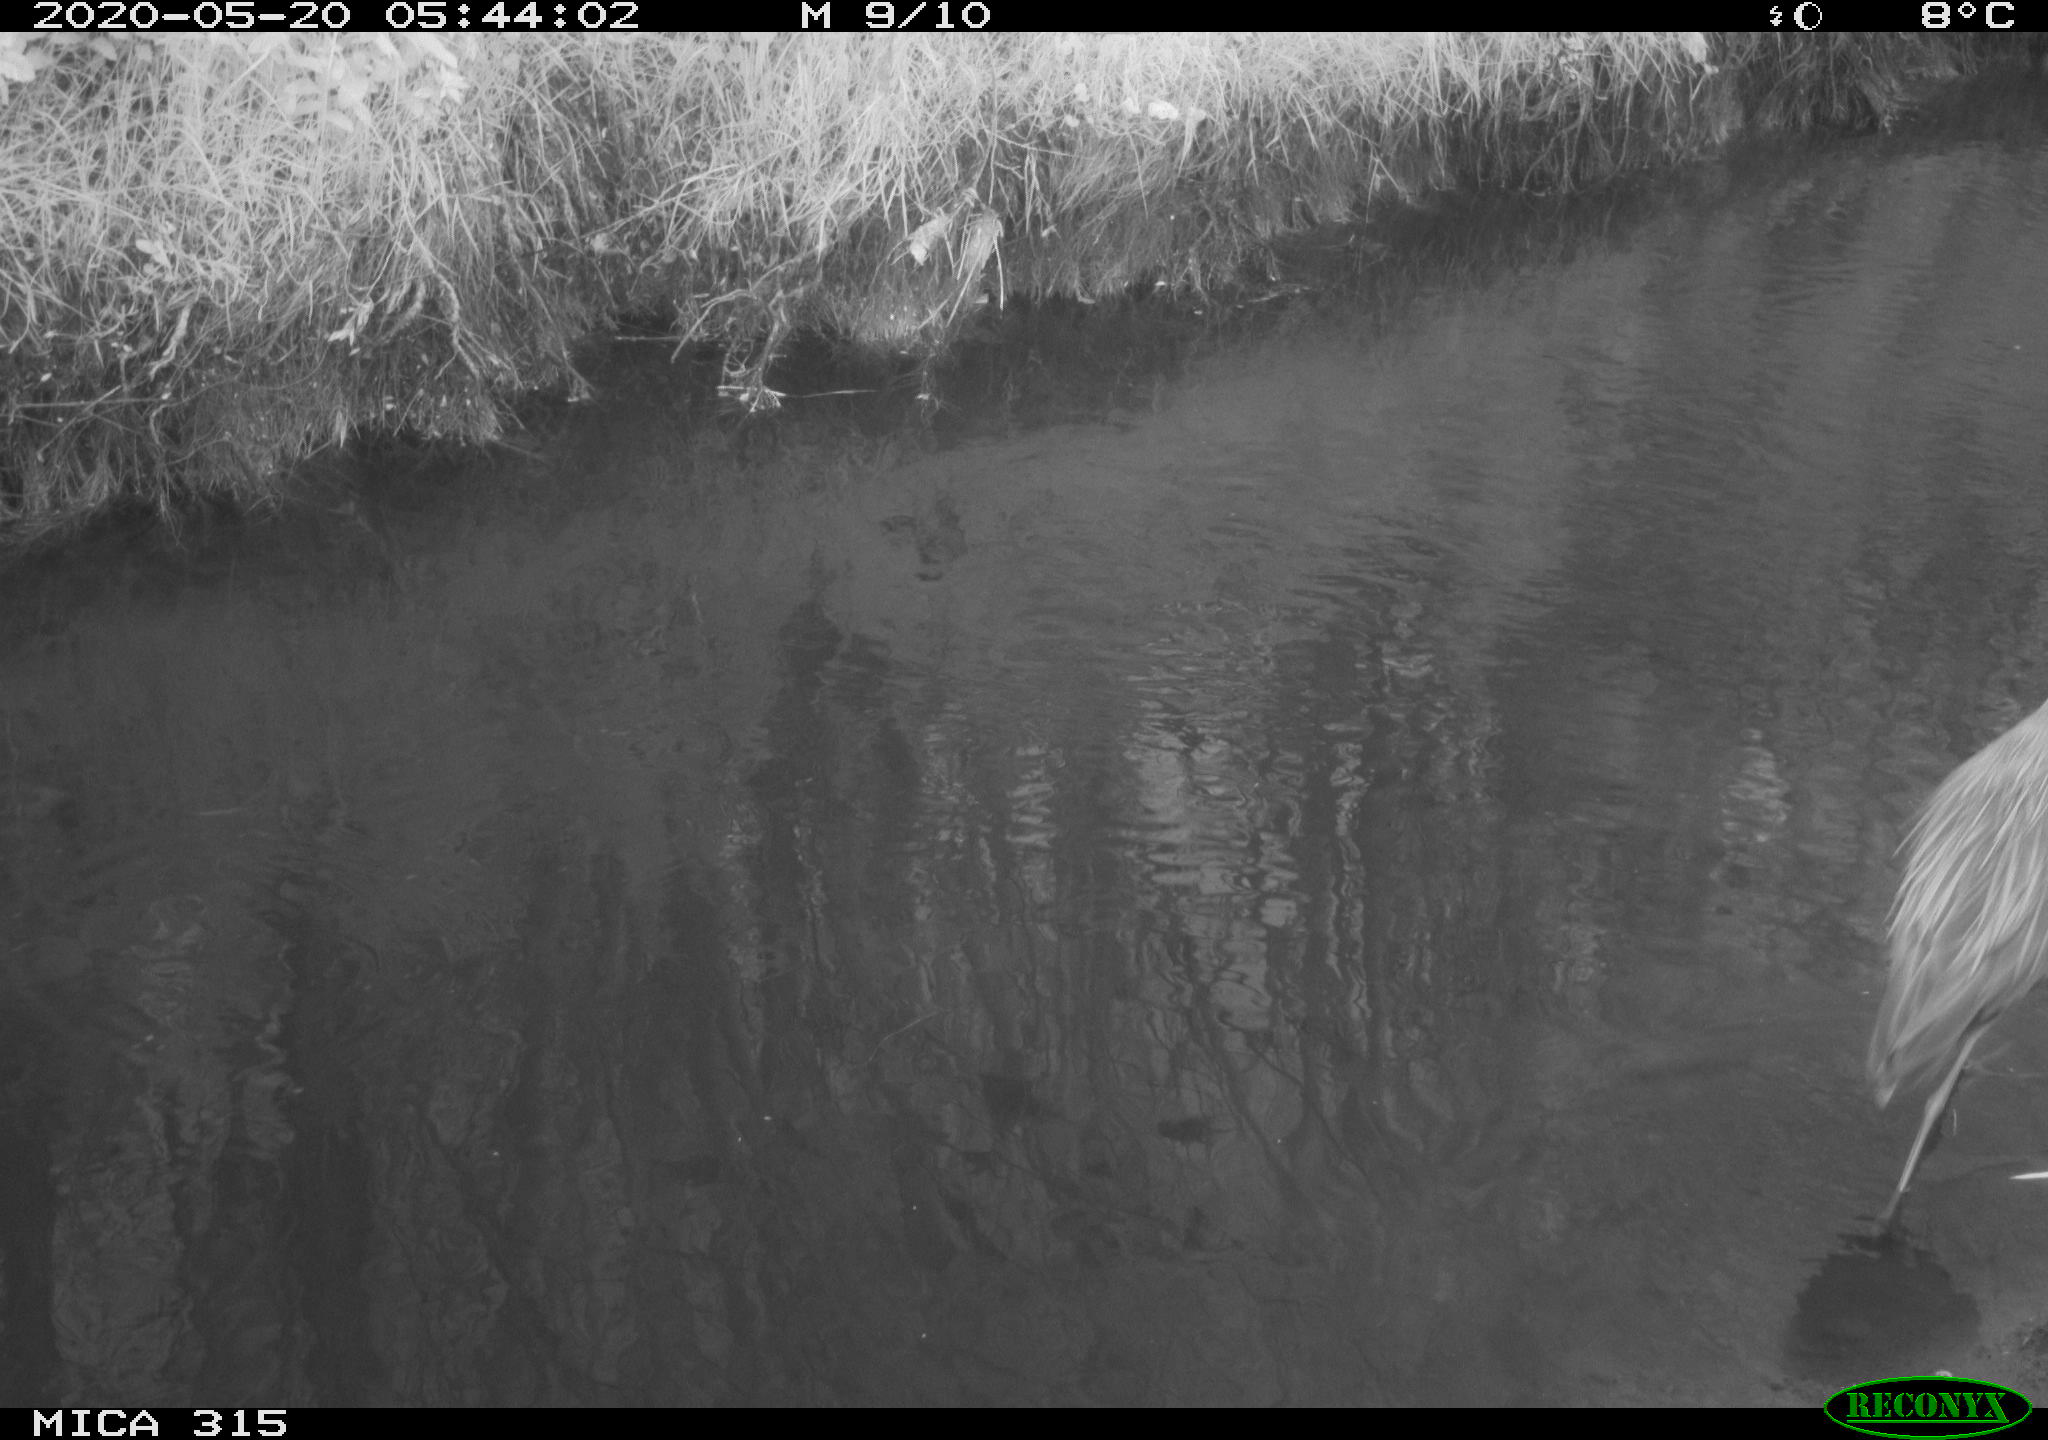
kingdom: Animalia
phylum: Chordata
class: Aves
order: Gruiformes
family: Rallidae
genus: Fulica
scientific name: Fulica atra
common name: Eurasian coot
